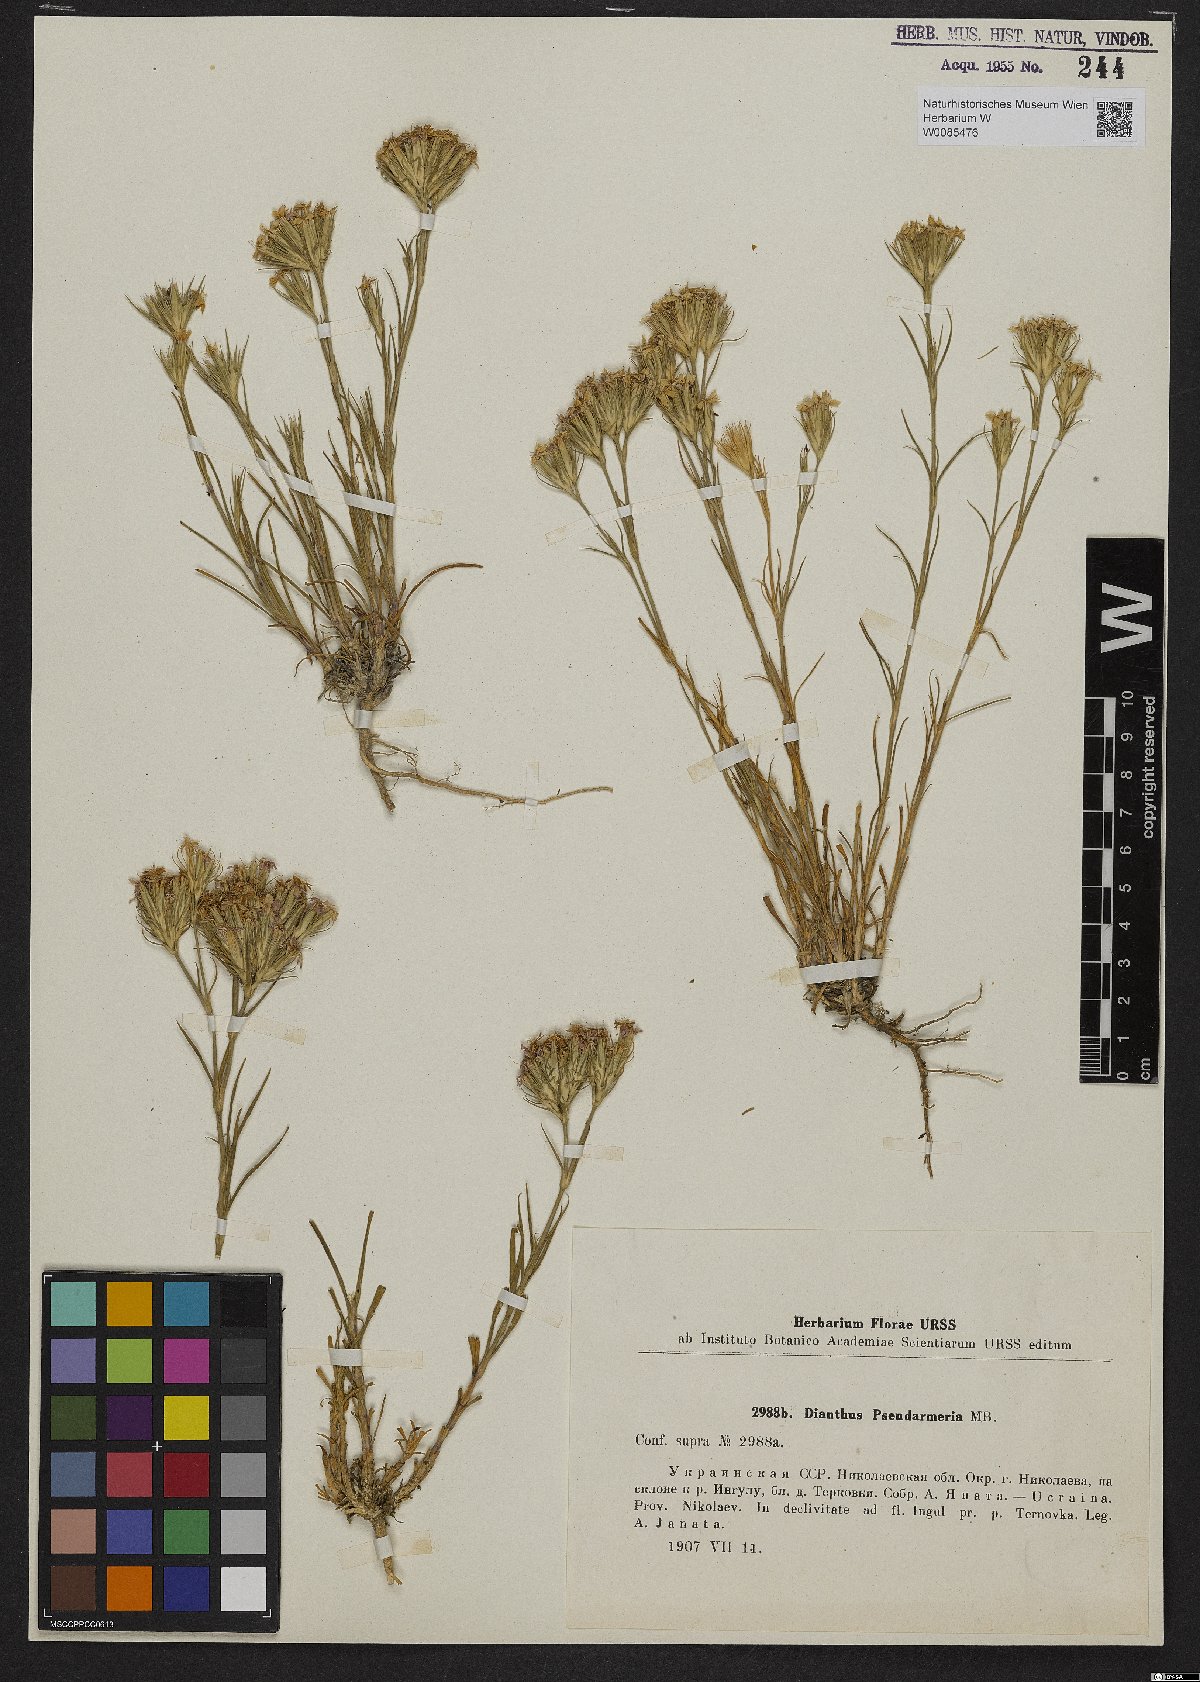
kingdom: Plantae
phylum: Tracheophyta
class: Magnoliopsida
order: Caryophyllales
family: Caryophyllaceae
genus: Dianthus
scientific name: Dianthus pseudarmeria
